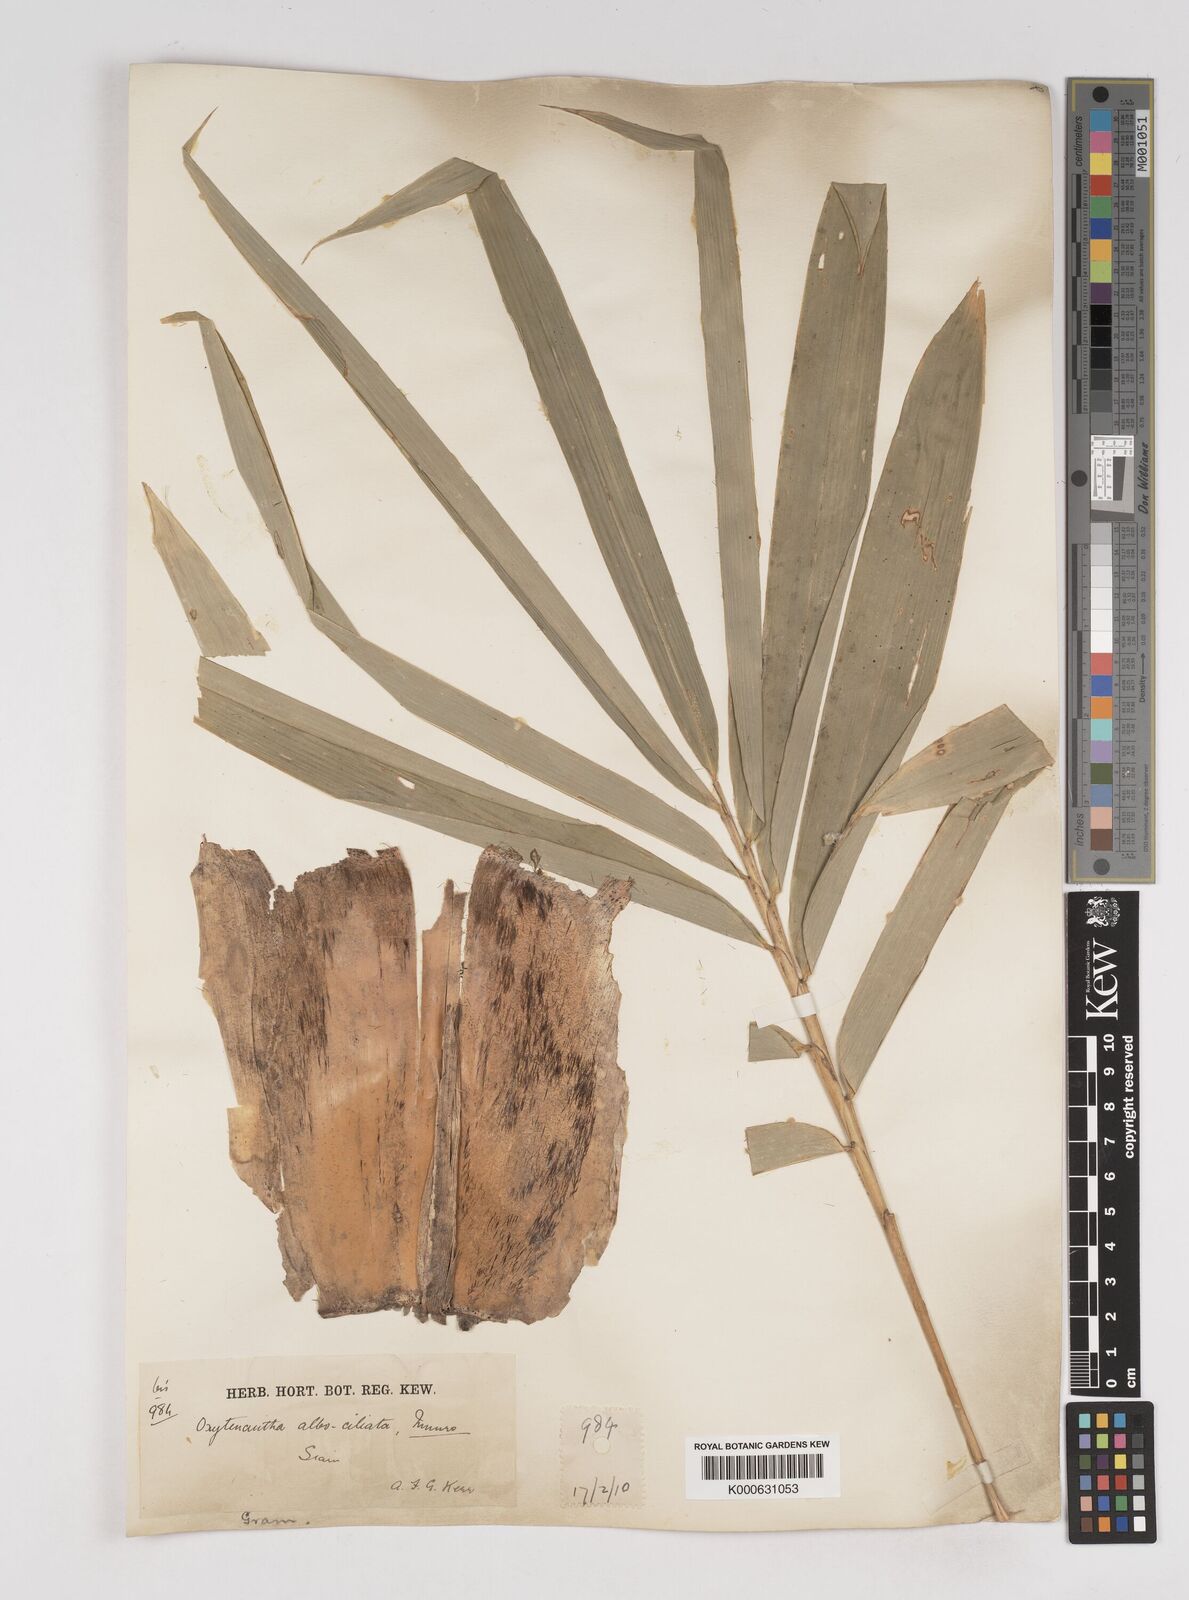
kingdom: Plantae
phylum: Tracheophyta
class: Liliopsida
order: Poales
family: Poaceae
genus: Gigantochloa
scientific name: Gigantochloa albociliata
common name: White-fringe gigantochloa
